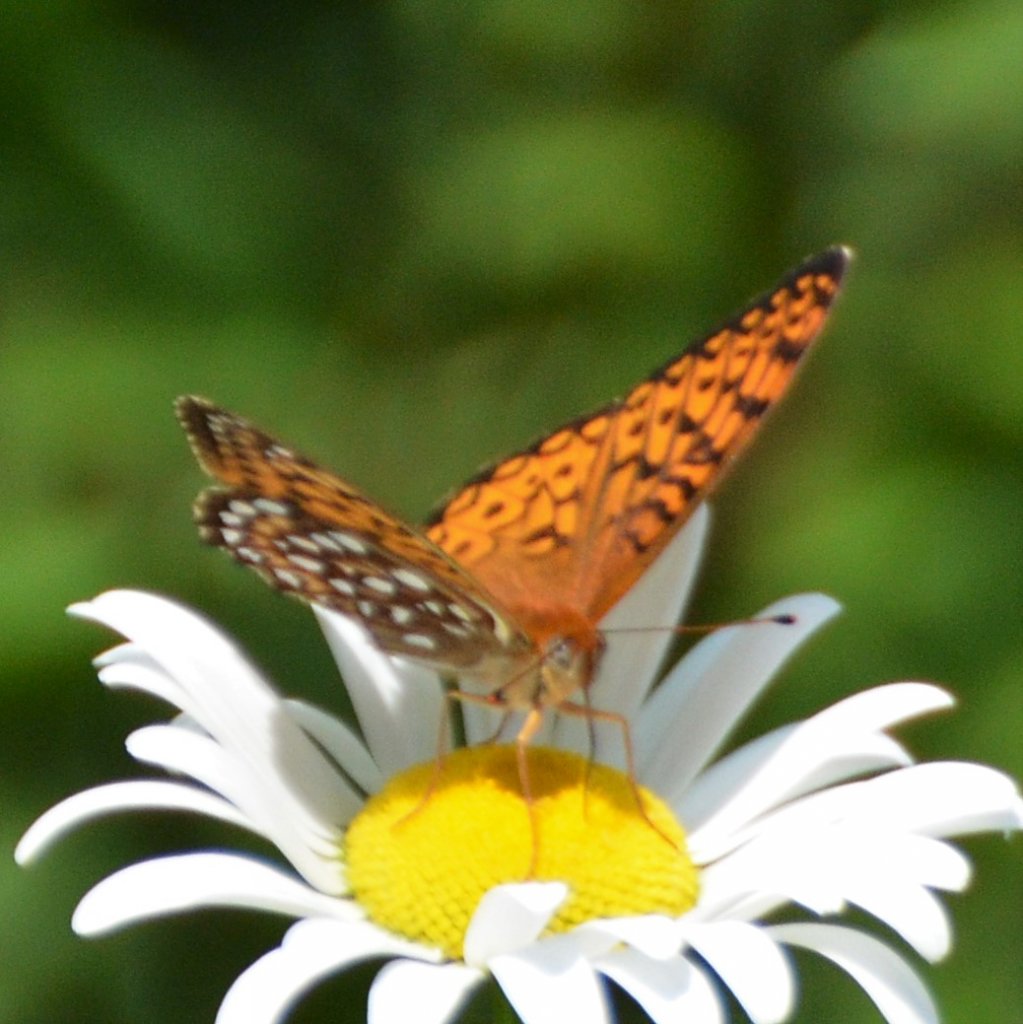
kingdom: Animalia
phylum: Arthropoda
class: Insecta
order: Lepidoptera
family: Nymphalidae
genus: Speyeria
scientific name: Speyeria atlantis
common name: Atlantis Fritillary
